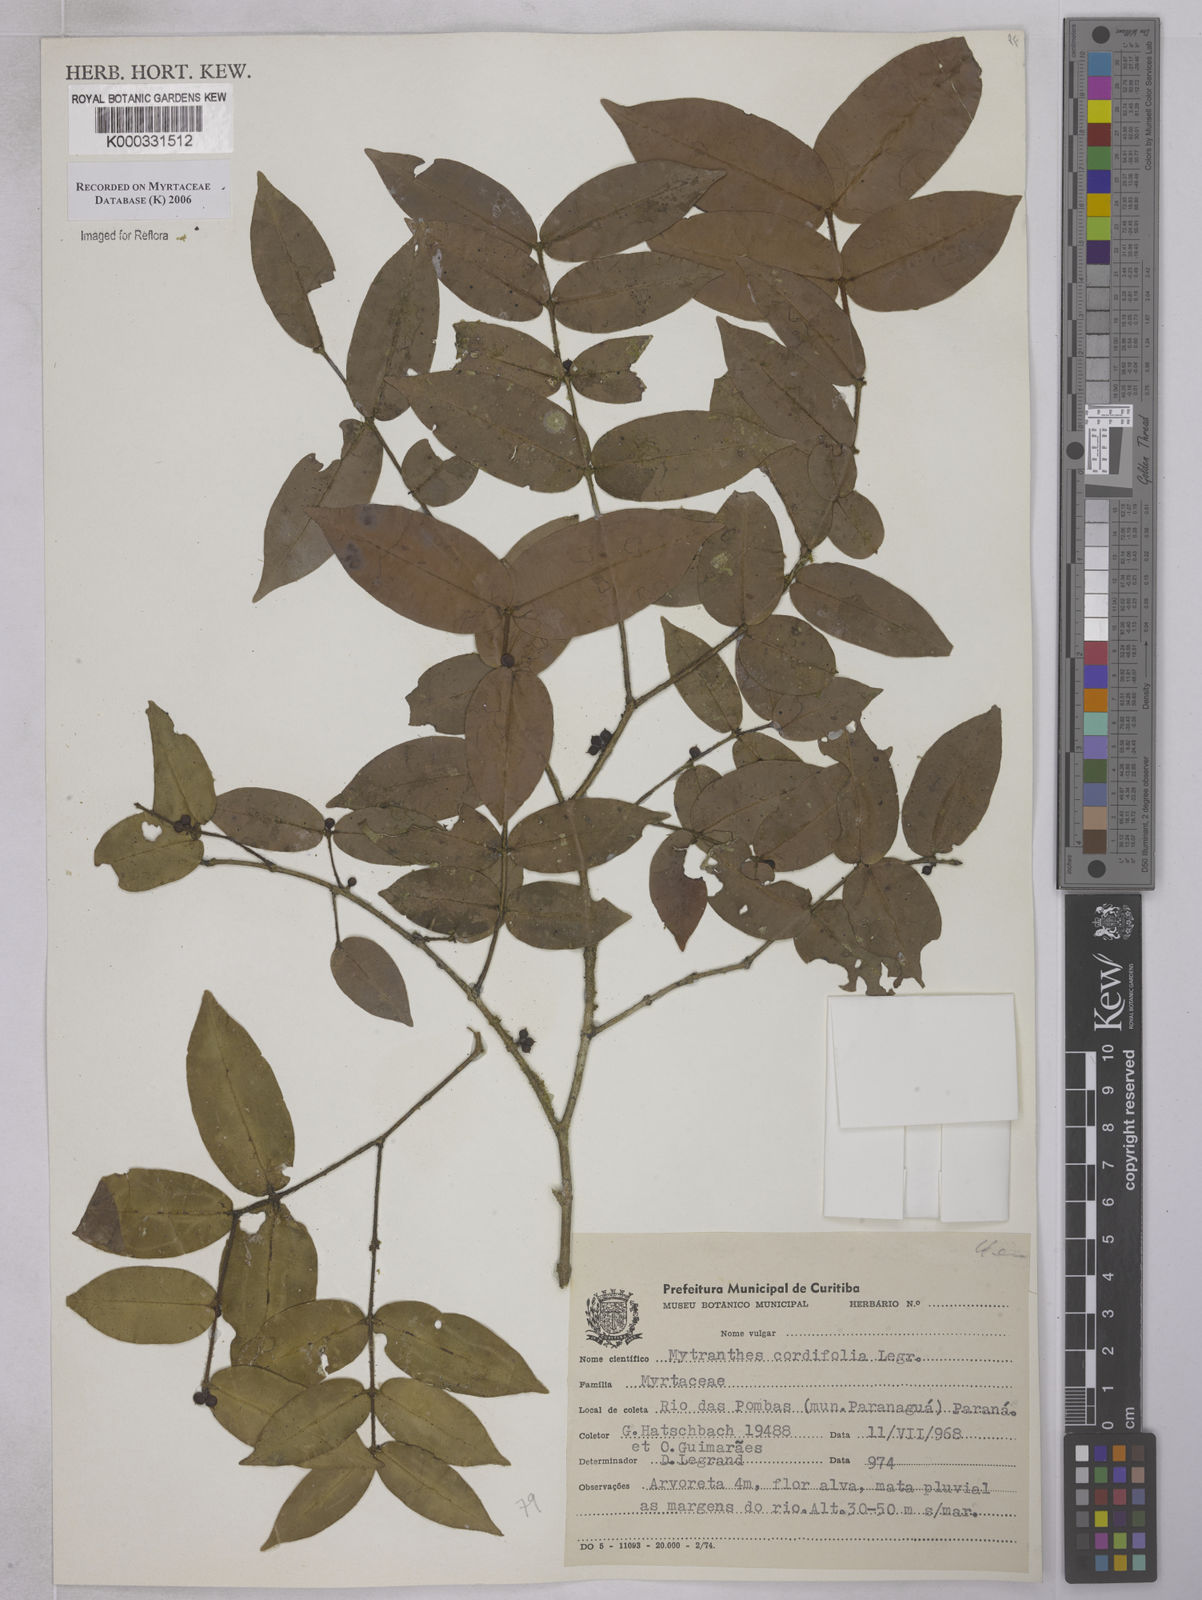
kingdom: Plantae
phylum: Tracheophyta
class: Magnoliopsida
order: Myrtales
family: Myrtaceae
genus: Neomitranthes
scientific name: Neomitranthes cordifolia
